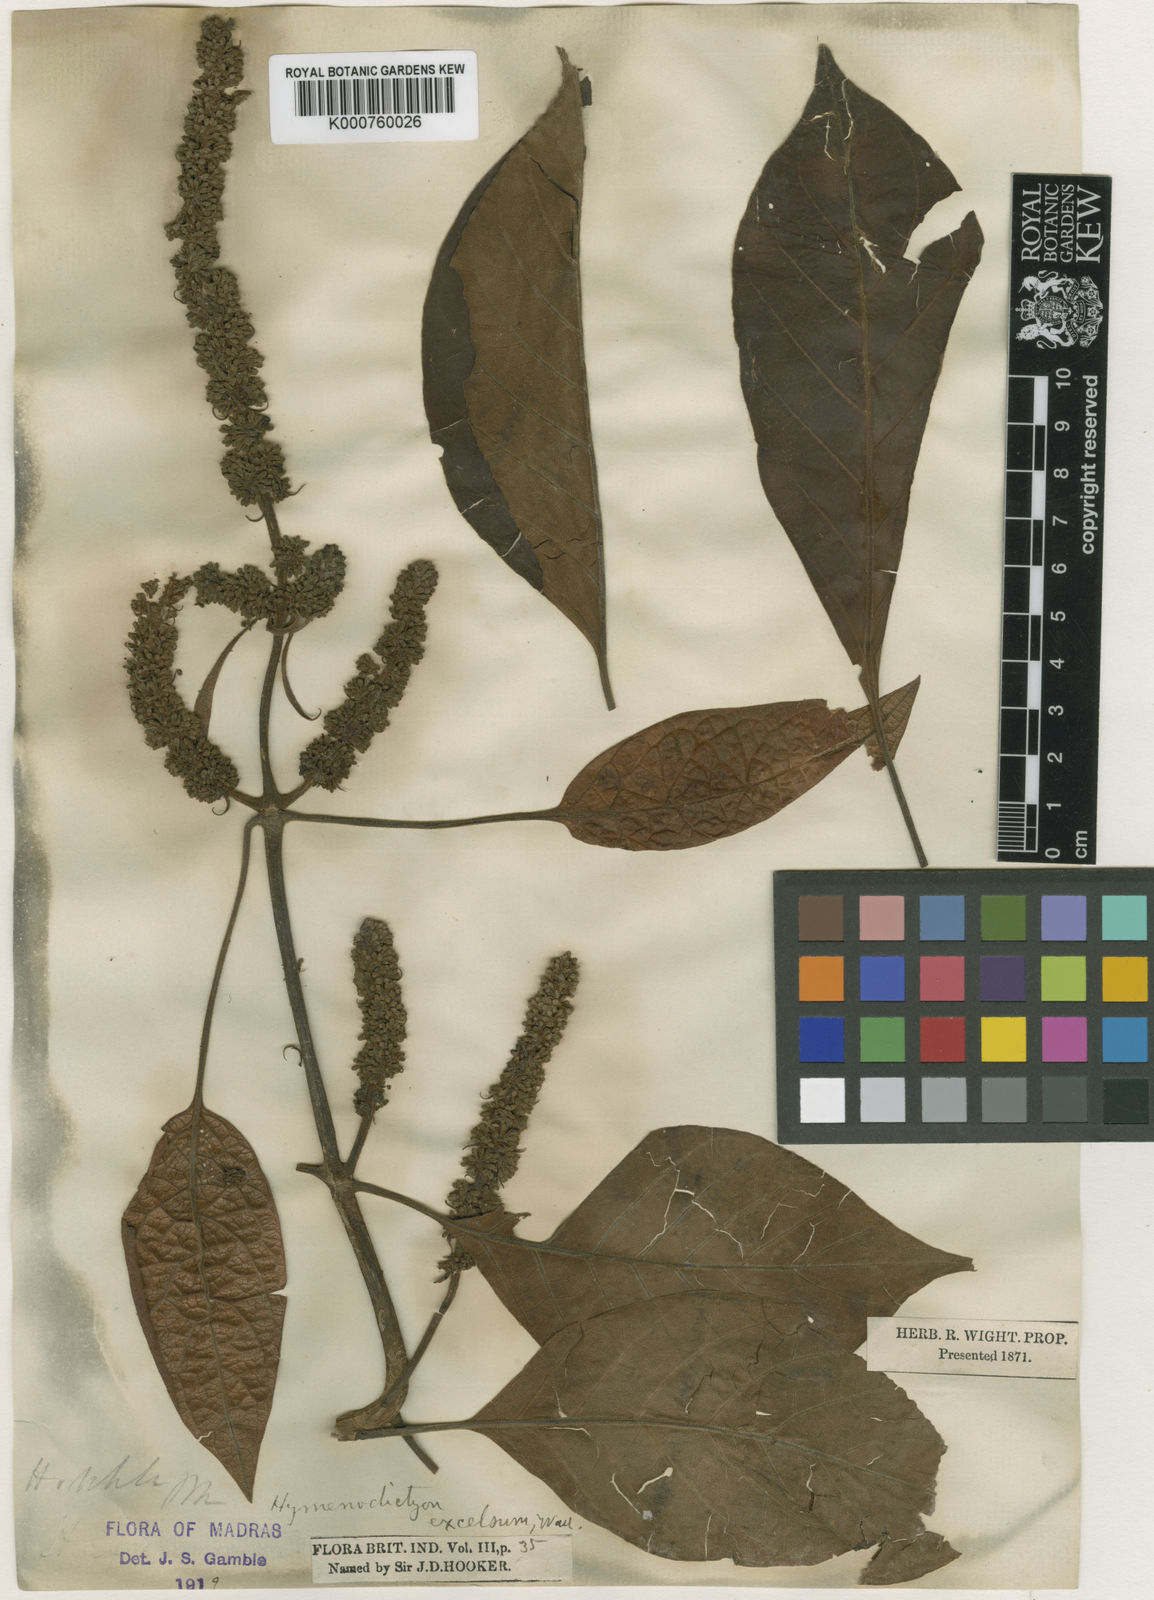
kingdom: Plantae
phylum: Tracheophyta
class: Magnoliopsida
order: Gentianales
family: Rubiaceae
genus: Hymenodictyon
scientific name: Hymenodictyon orixense
